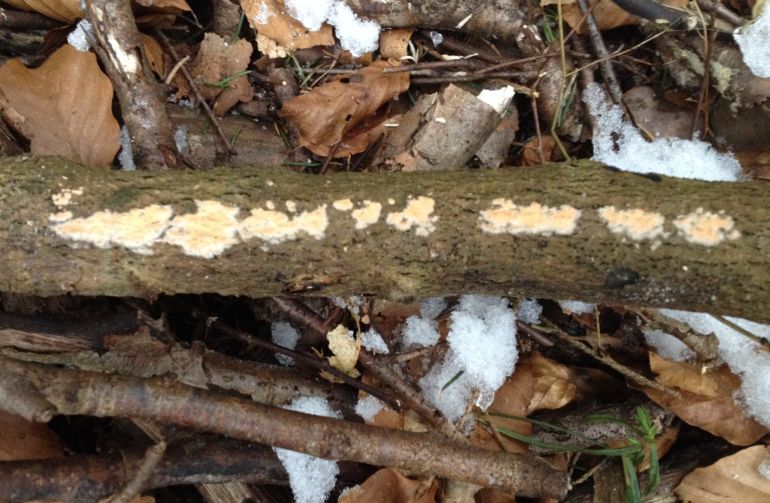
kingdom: Fungi
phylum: Basidiomycota
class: Agaricomycetes
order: Russulales
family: Peniophoraceae
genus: Peniophora
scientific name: Peniophora incarnata
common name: laksefarvet voksskind
